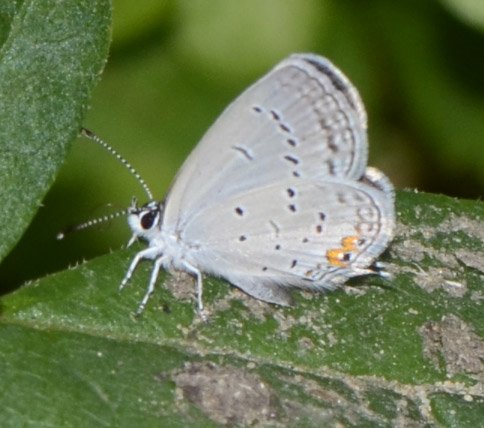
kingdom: Animalia
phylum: Arthropoda
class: Insecta
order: Lepidoptera
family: Lycaenidae
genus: Elkalyce
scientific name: Elkalyce comyntas
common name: Eastern Tailed-Blue
